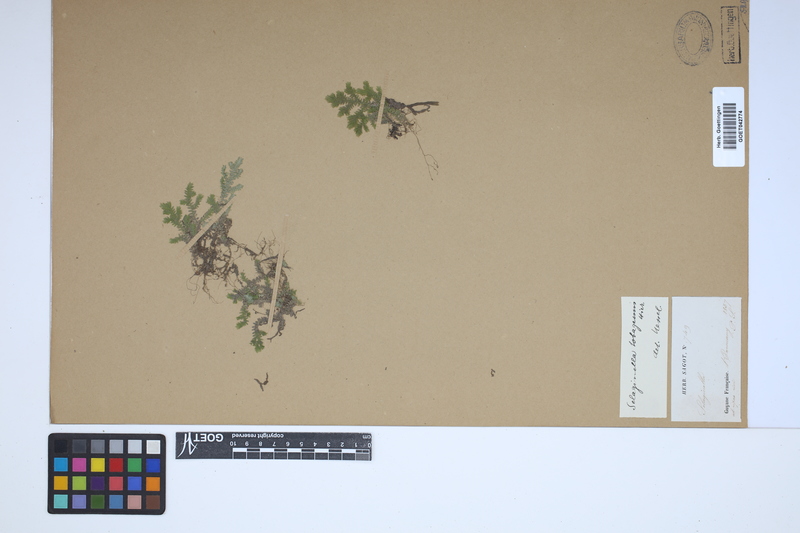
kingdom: Plantae
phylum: Tracheophyta
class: Lycopodiopsida
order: Selaginellales
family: Selaginellaceae
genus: Selaginella
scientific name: Selaginella producta
